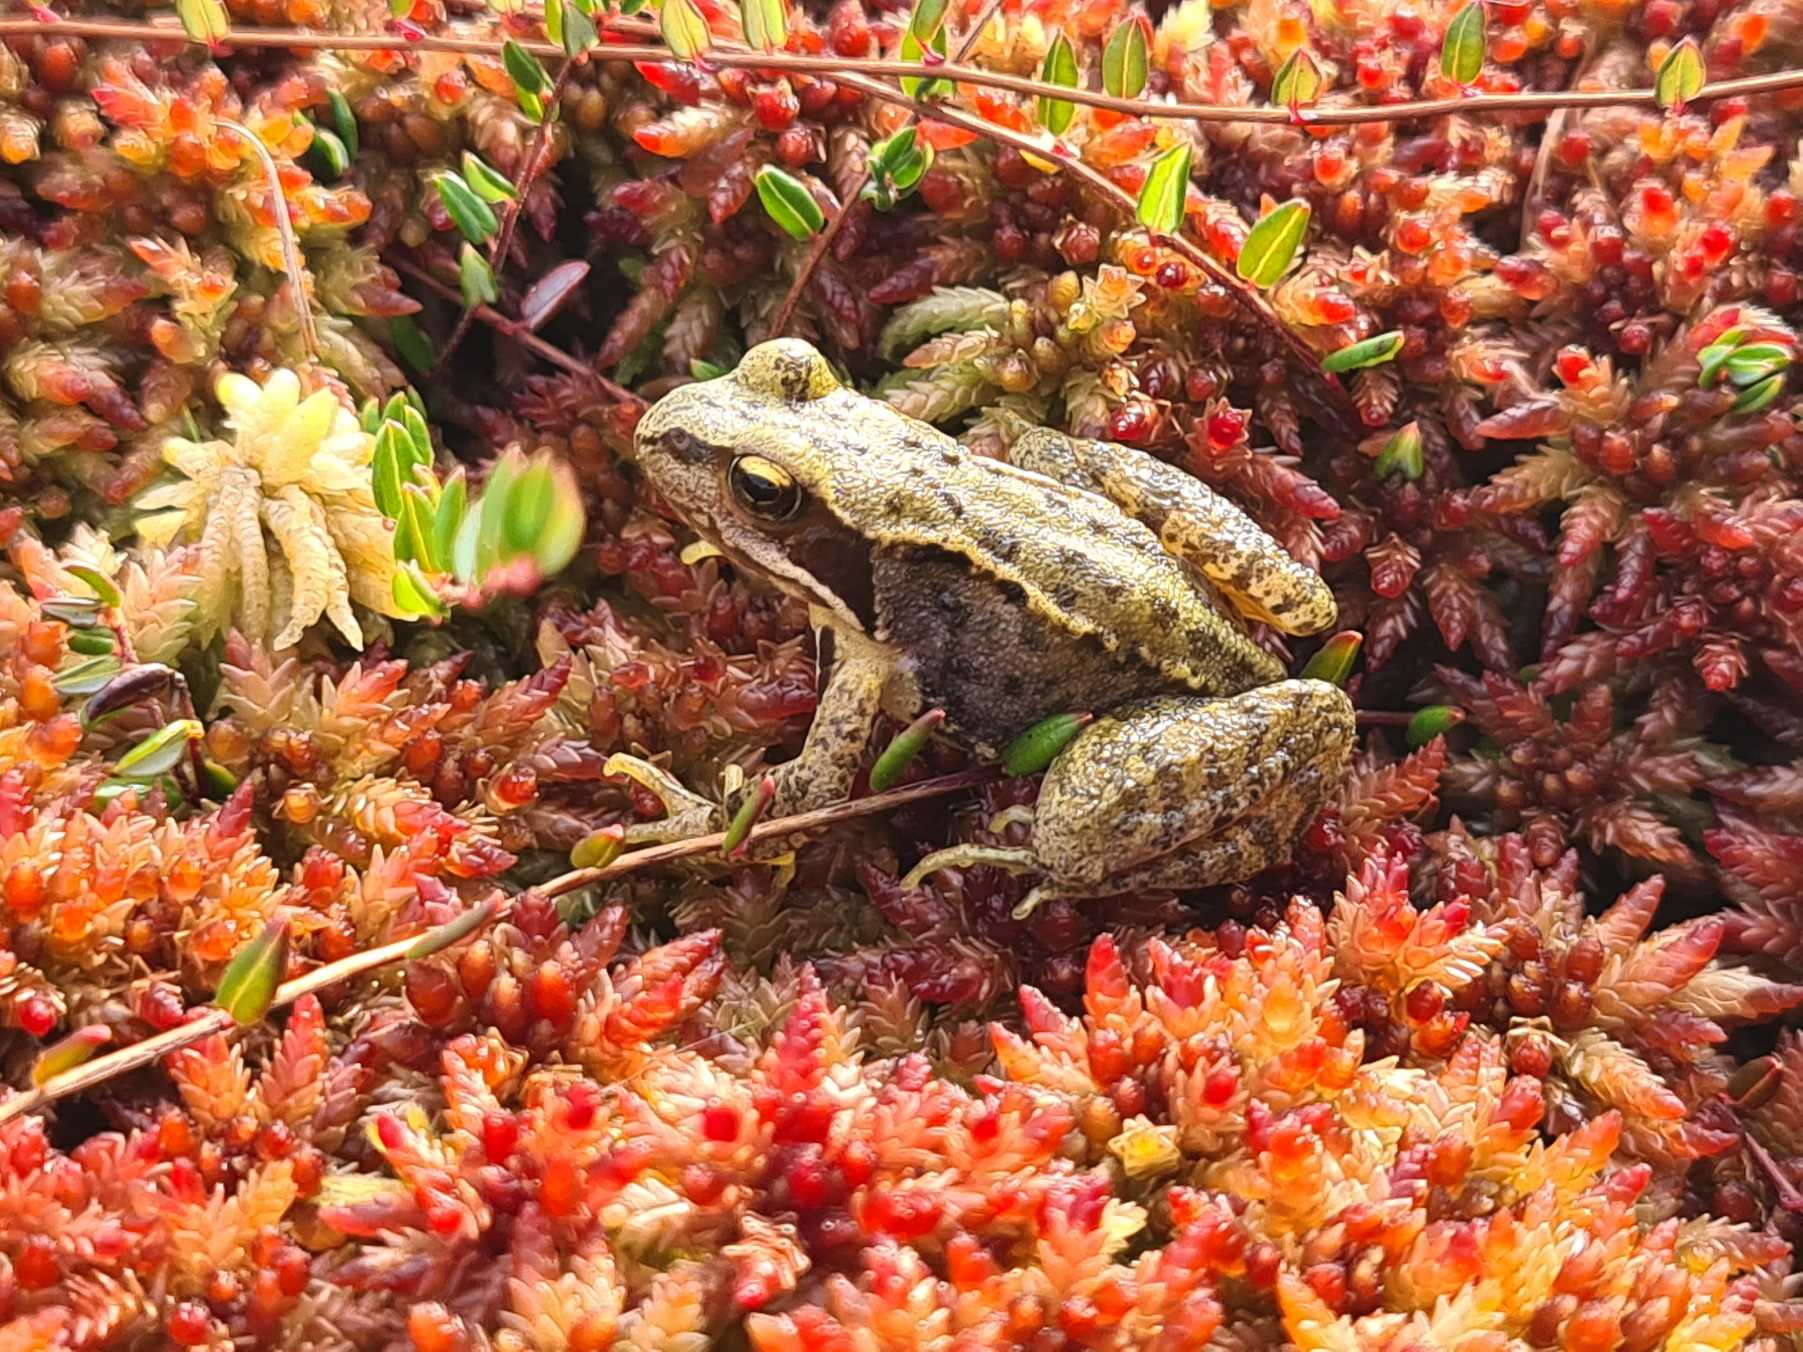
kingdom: Animalia
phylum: Chordata
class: Amphibia
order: Anura
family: Ranidae
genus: Rana
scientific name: Rana temporaria
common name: Butsnudet frø
